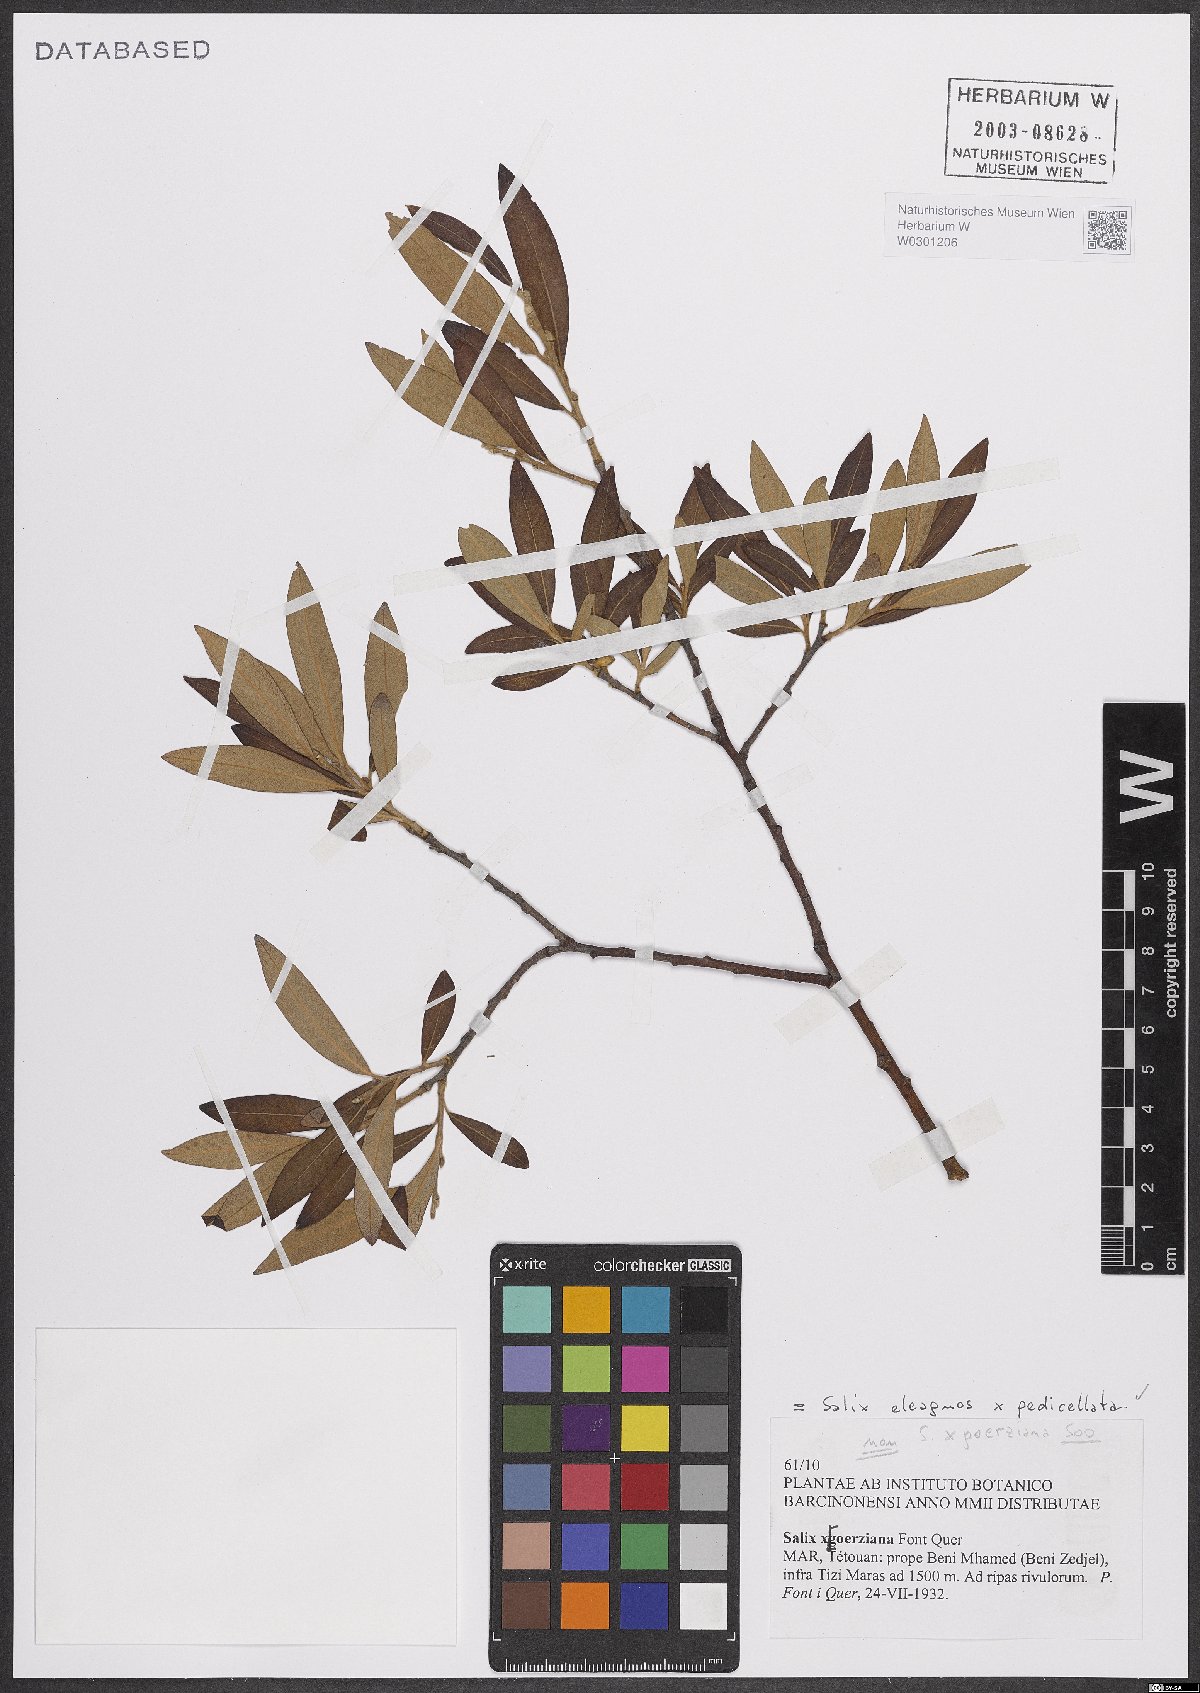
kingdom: Plantae
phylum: Tracheophyta
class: Magnoliopsida
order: Malpighiales
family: Salicaceae
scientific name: Salicaceae
